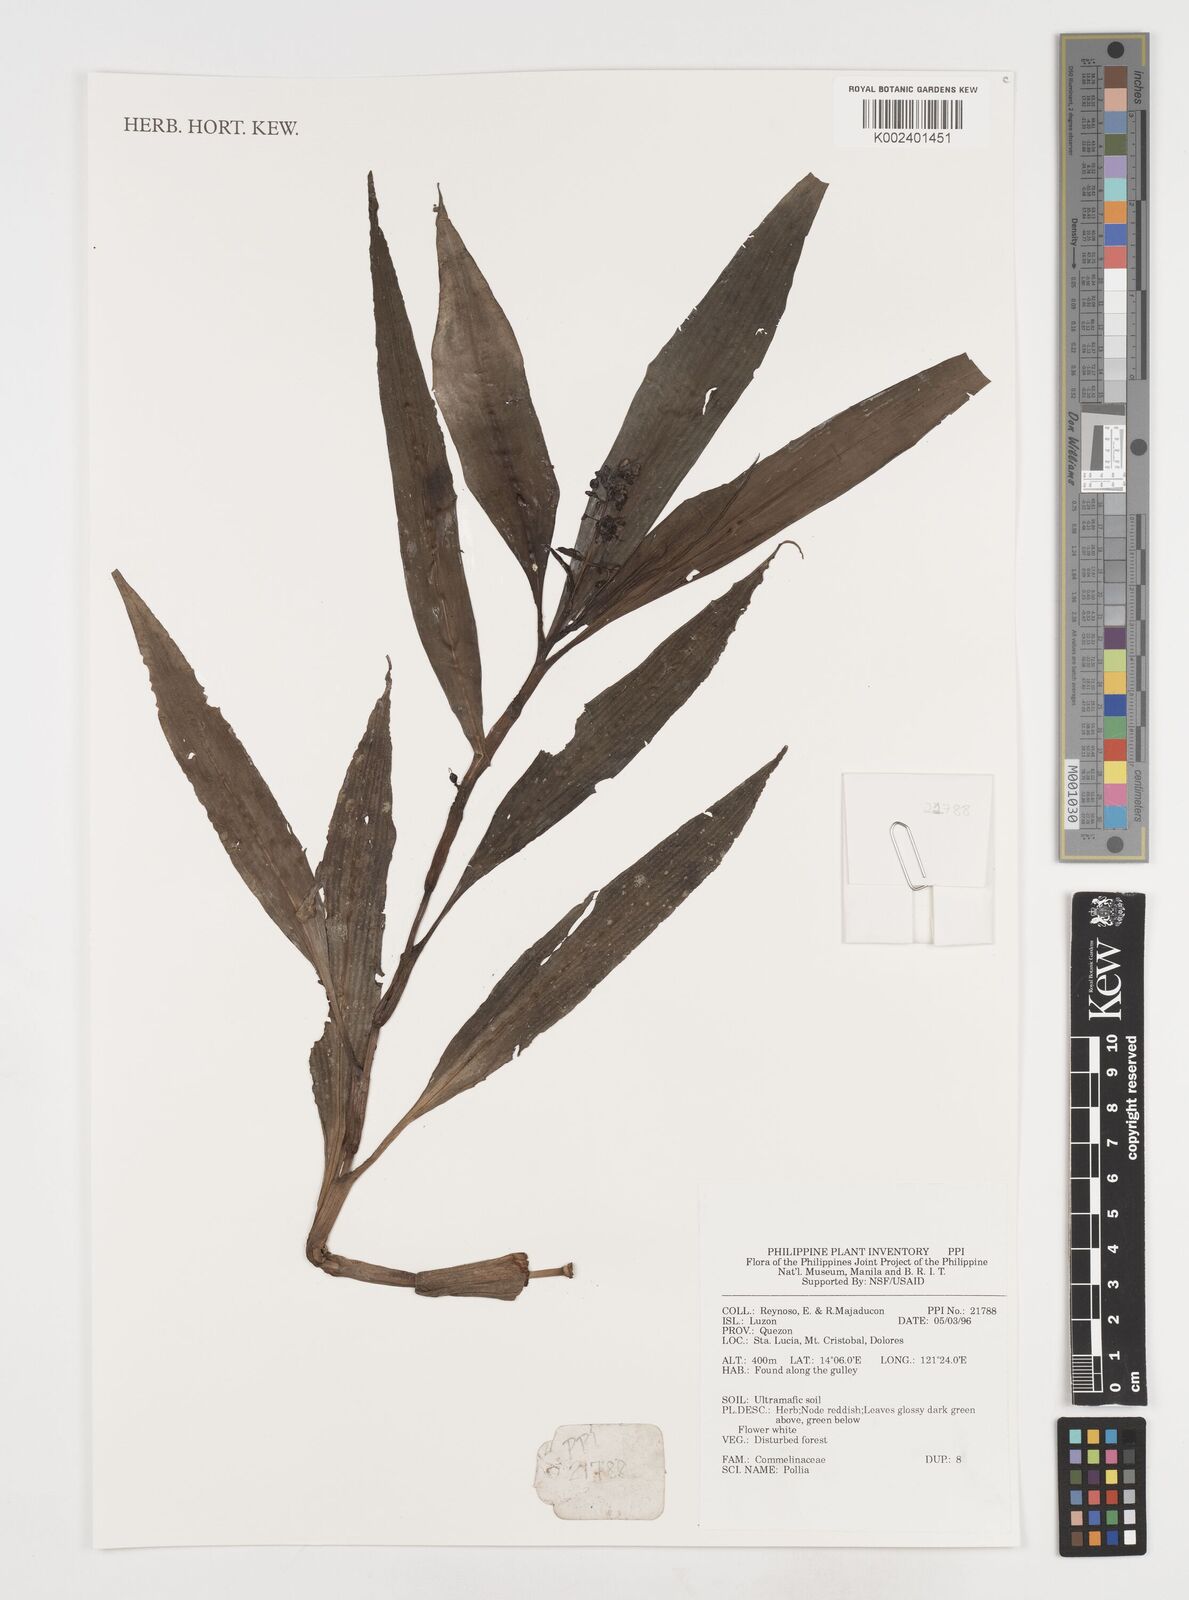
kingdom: Plantae
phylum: Tracheophyta
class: Liliopsida
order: Commelinales
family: Commelinaceae
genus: Pollia
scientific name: Pollia
